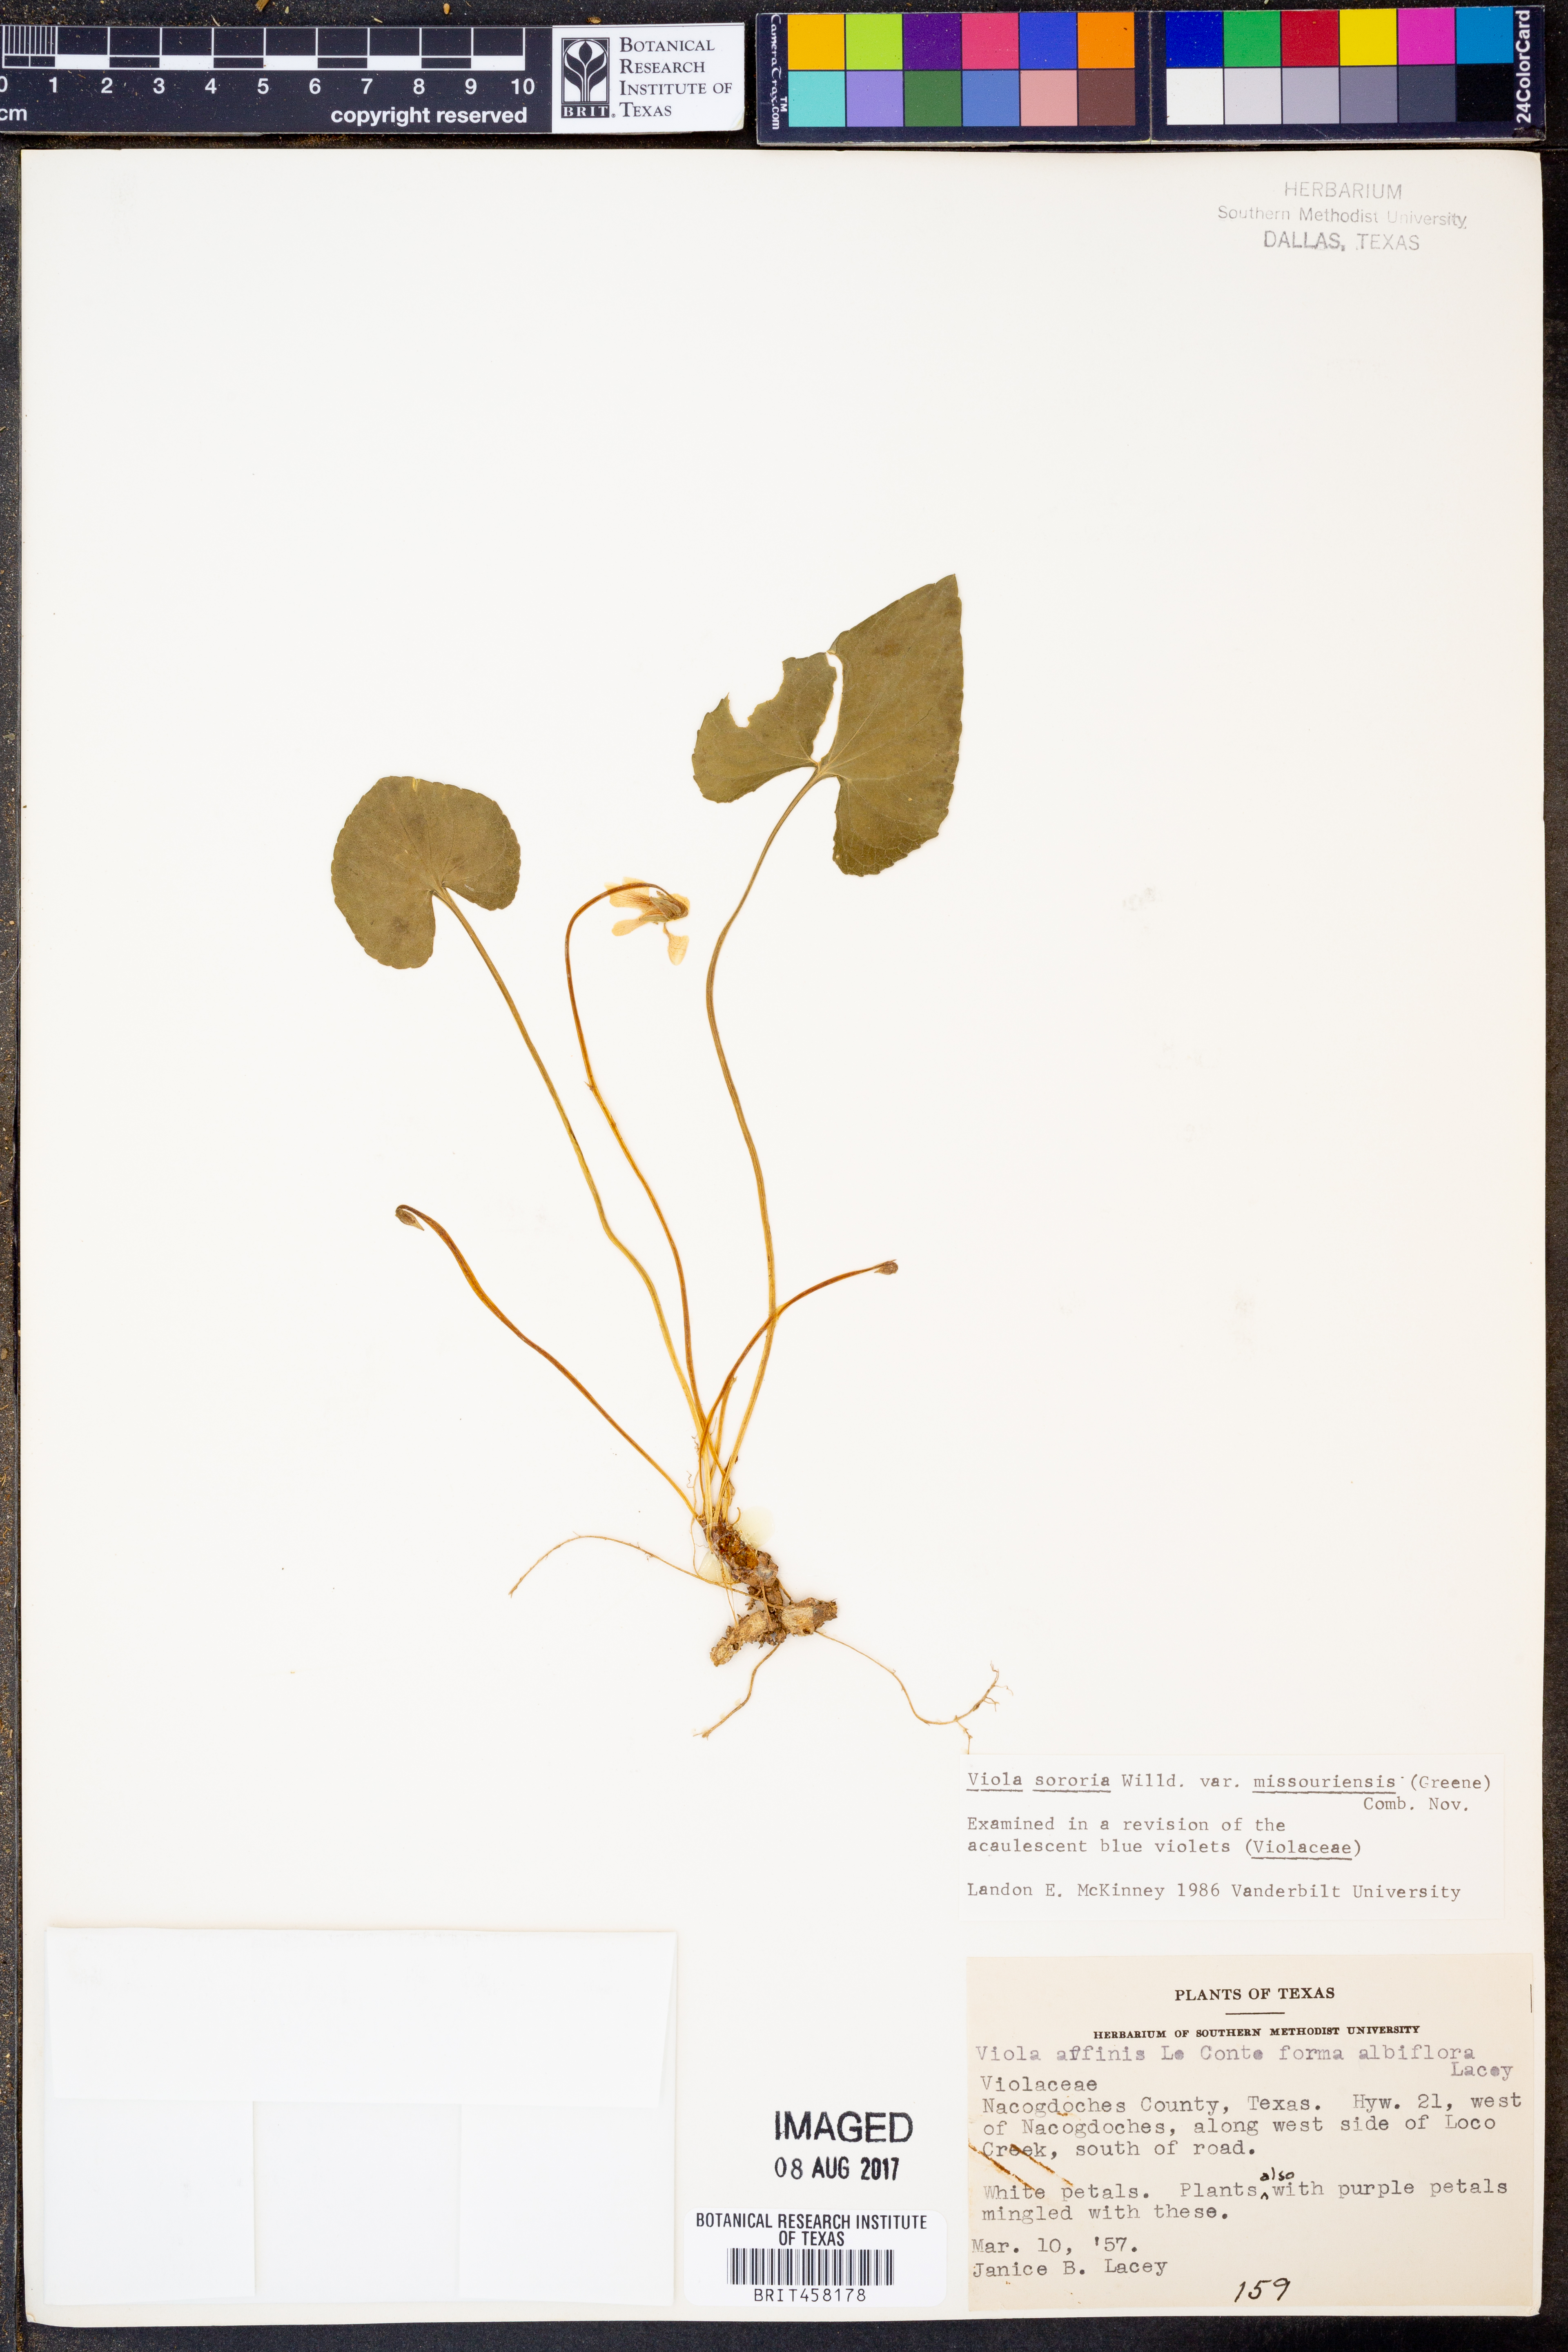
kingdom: Plantae
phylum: Tracheophyta
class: Magnoliopsida
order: Malpighiales
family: Violaceae
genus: Viola
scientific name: Viola sororia
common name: Dooryard violet
